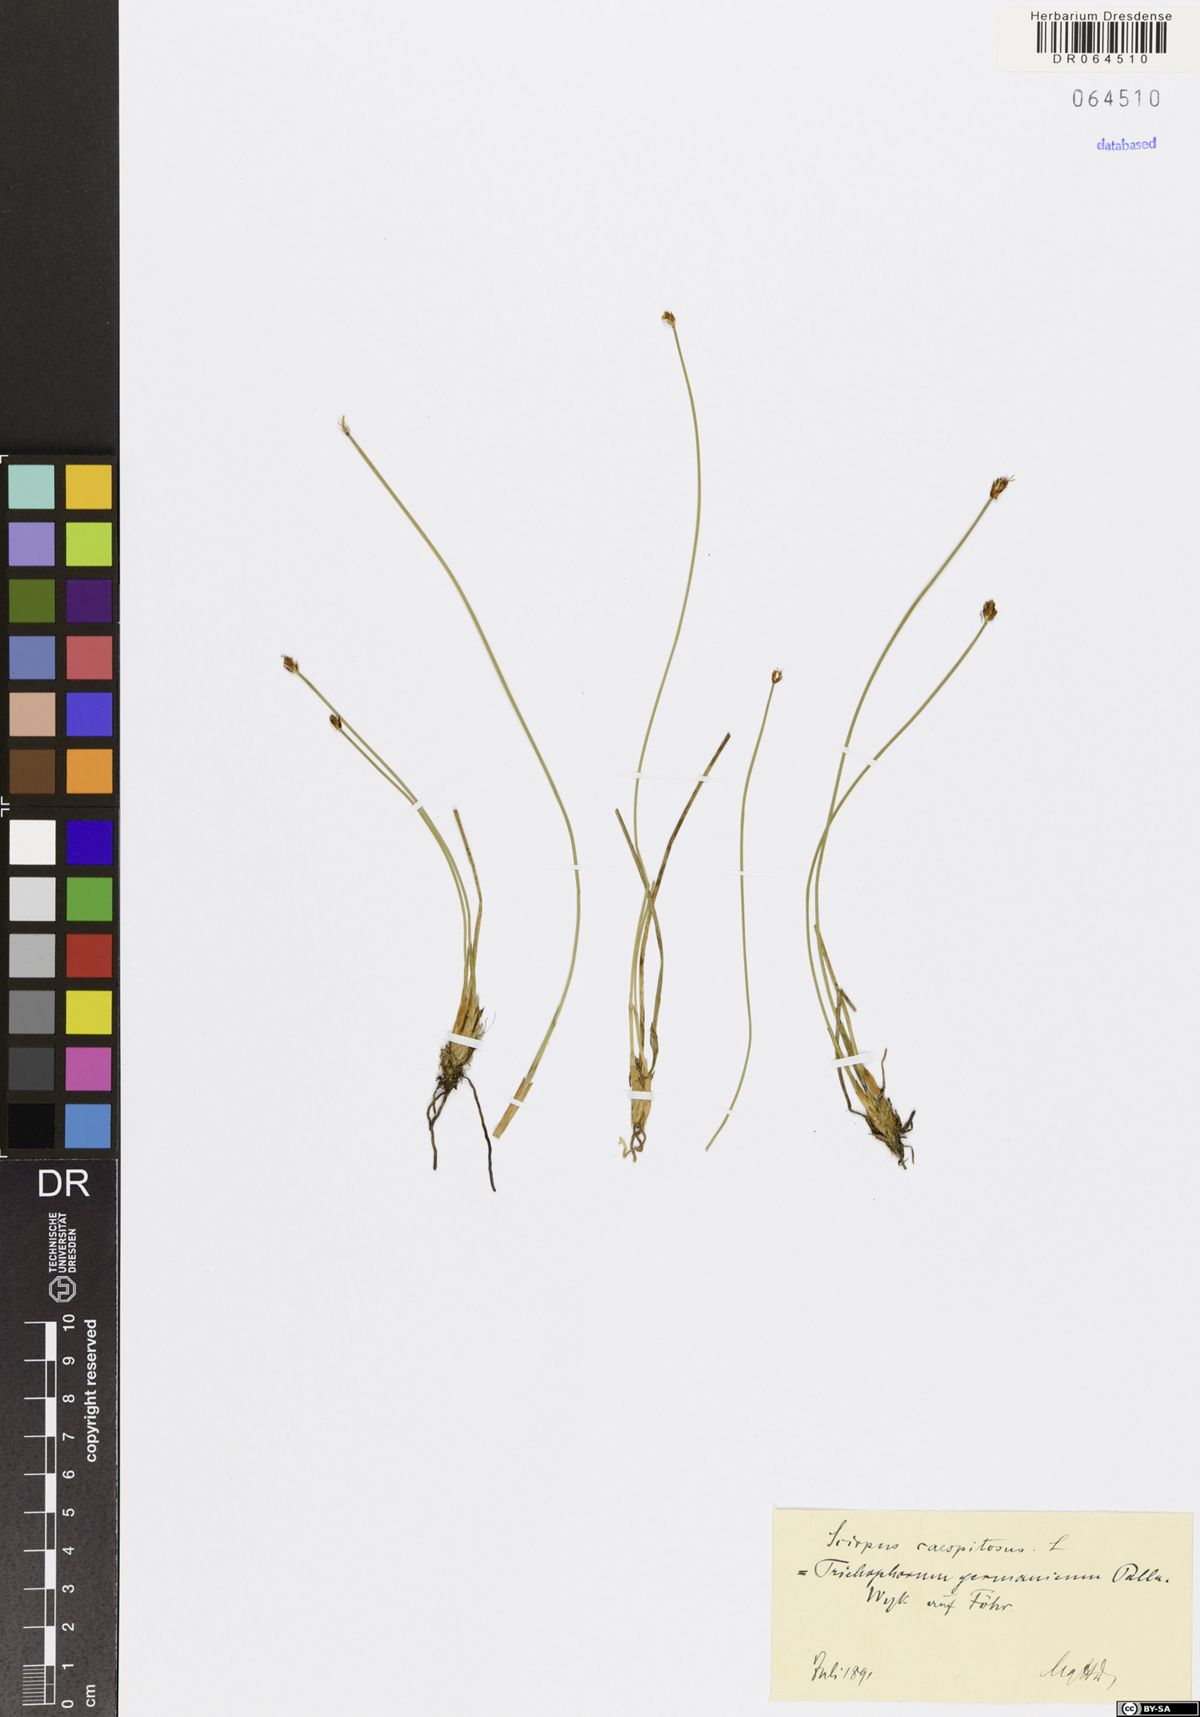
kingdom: Plantae
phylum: Tracheophyta
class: Liliopsida
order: Poales
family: Cyperaceae
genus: Trichophorum
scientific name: Trichophorum cespitosum
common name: Cespitose bulrush
